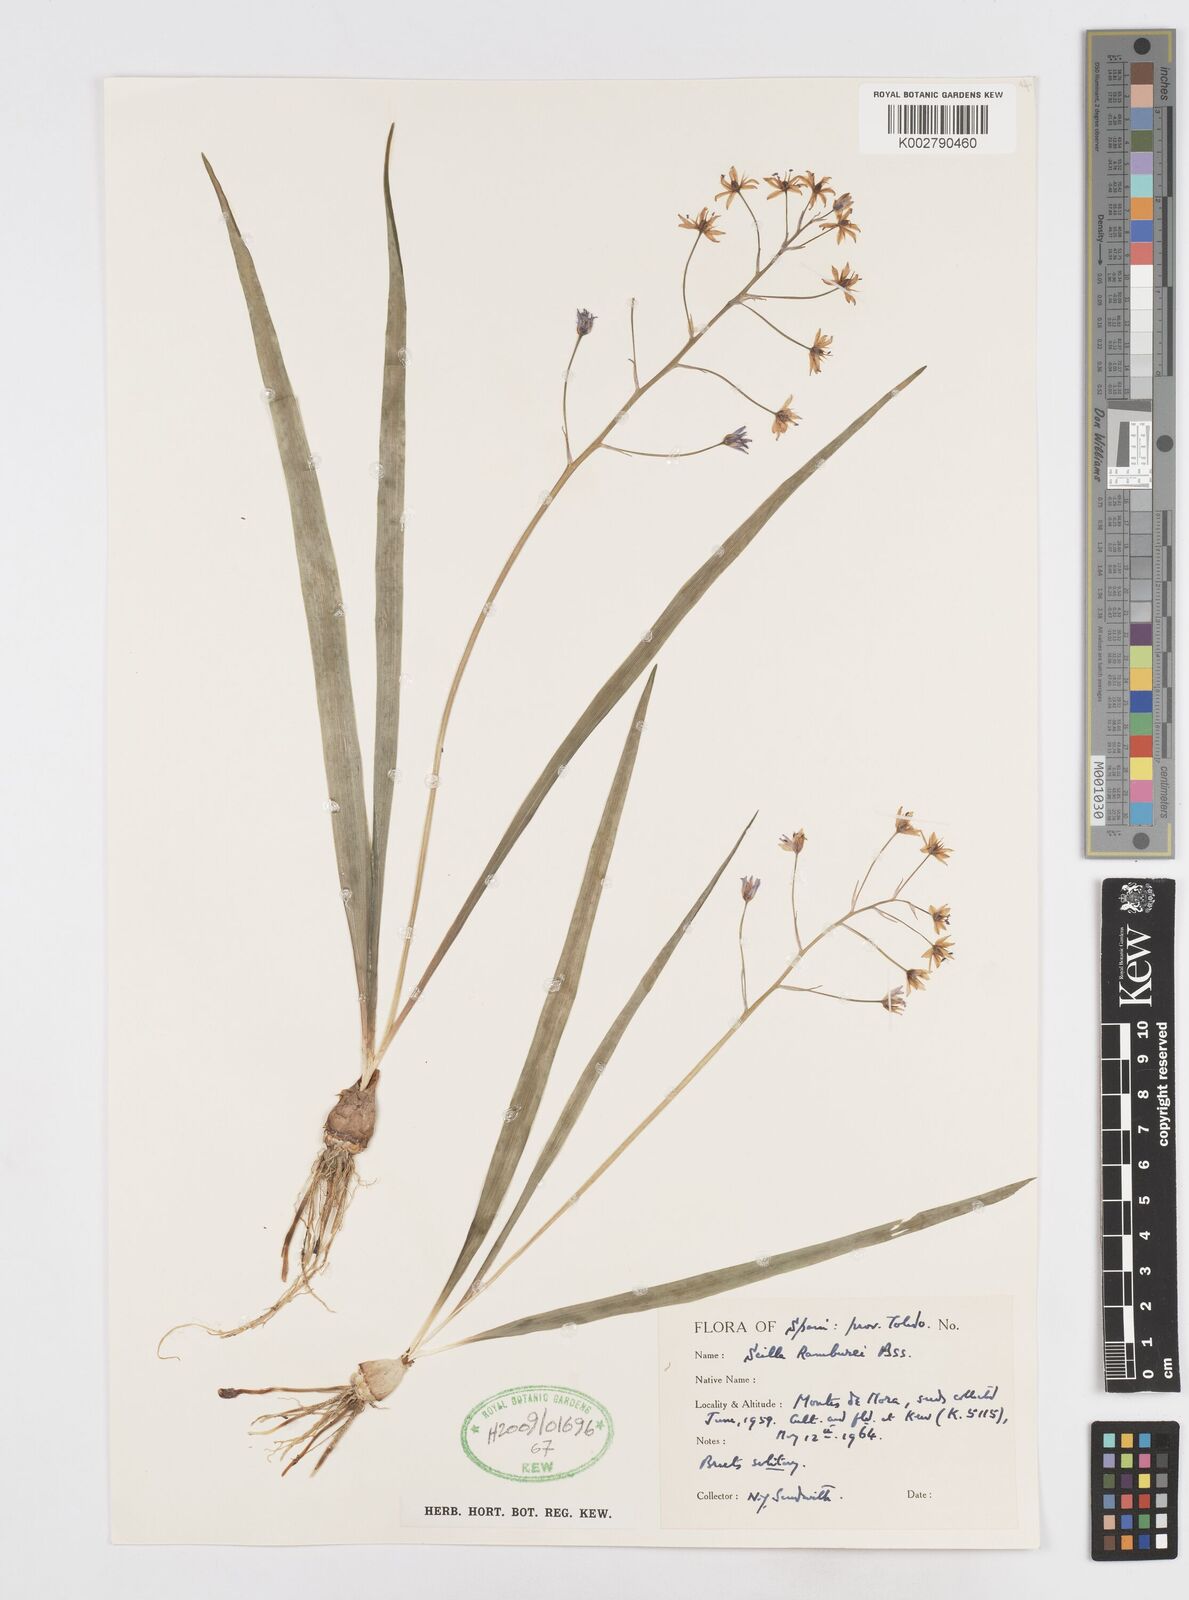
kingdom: Plantae
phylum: Tracheophyta
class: Liliopsida
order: Asparagales
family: Asparagaceae
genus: Scilla
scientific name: Scilla verna
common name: Spring squill
